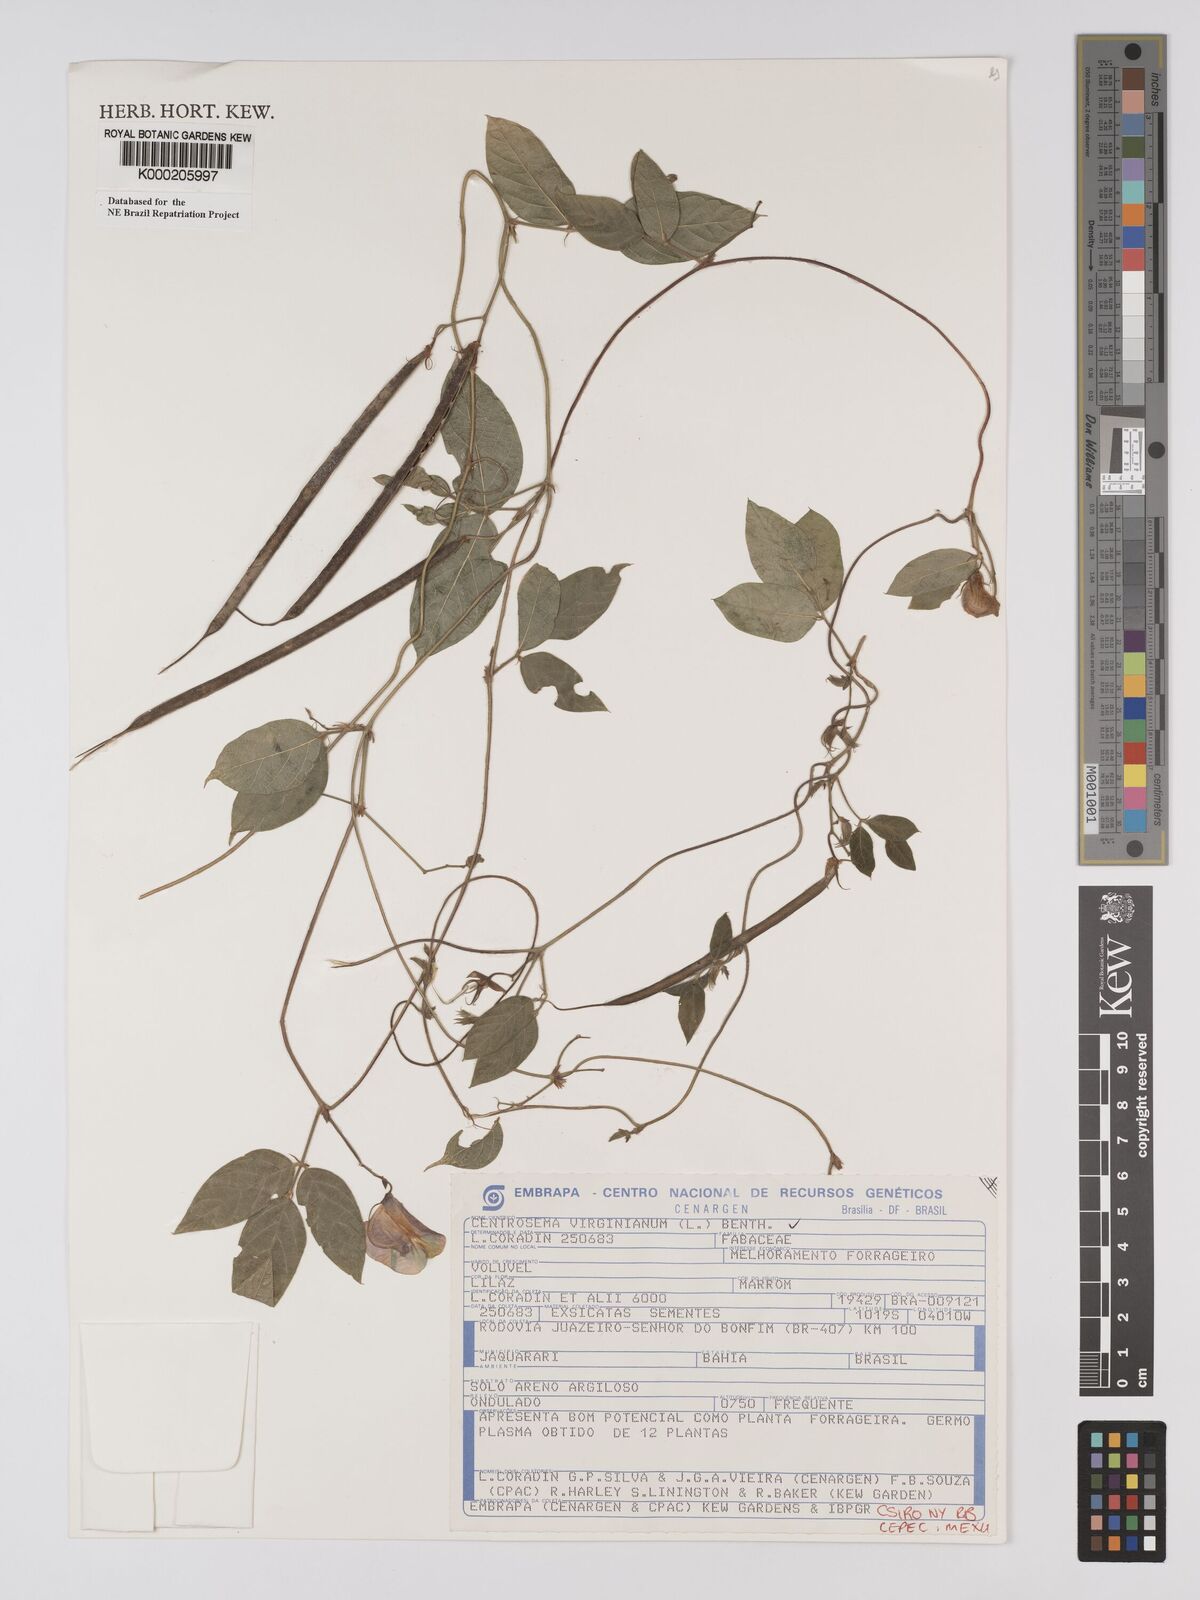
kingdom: Plantae
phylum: Tracheophyta
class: Magnoliopsida
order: Fabales
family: Fabaceae
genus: Centrosema
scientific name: Centrosema virginianum
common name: Butterfly-pea
